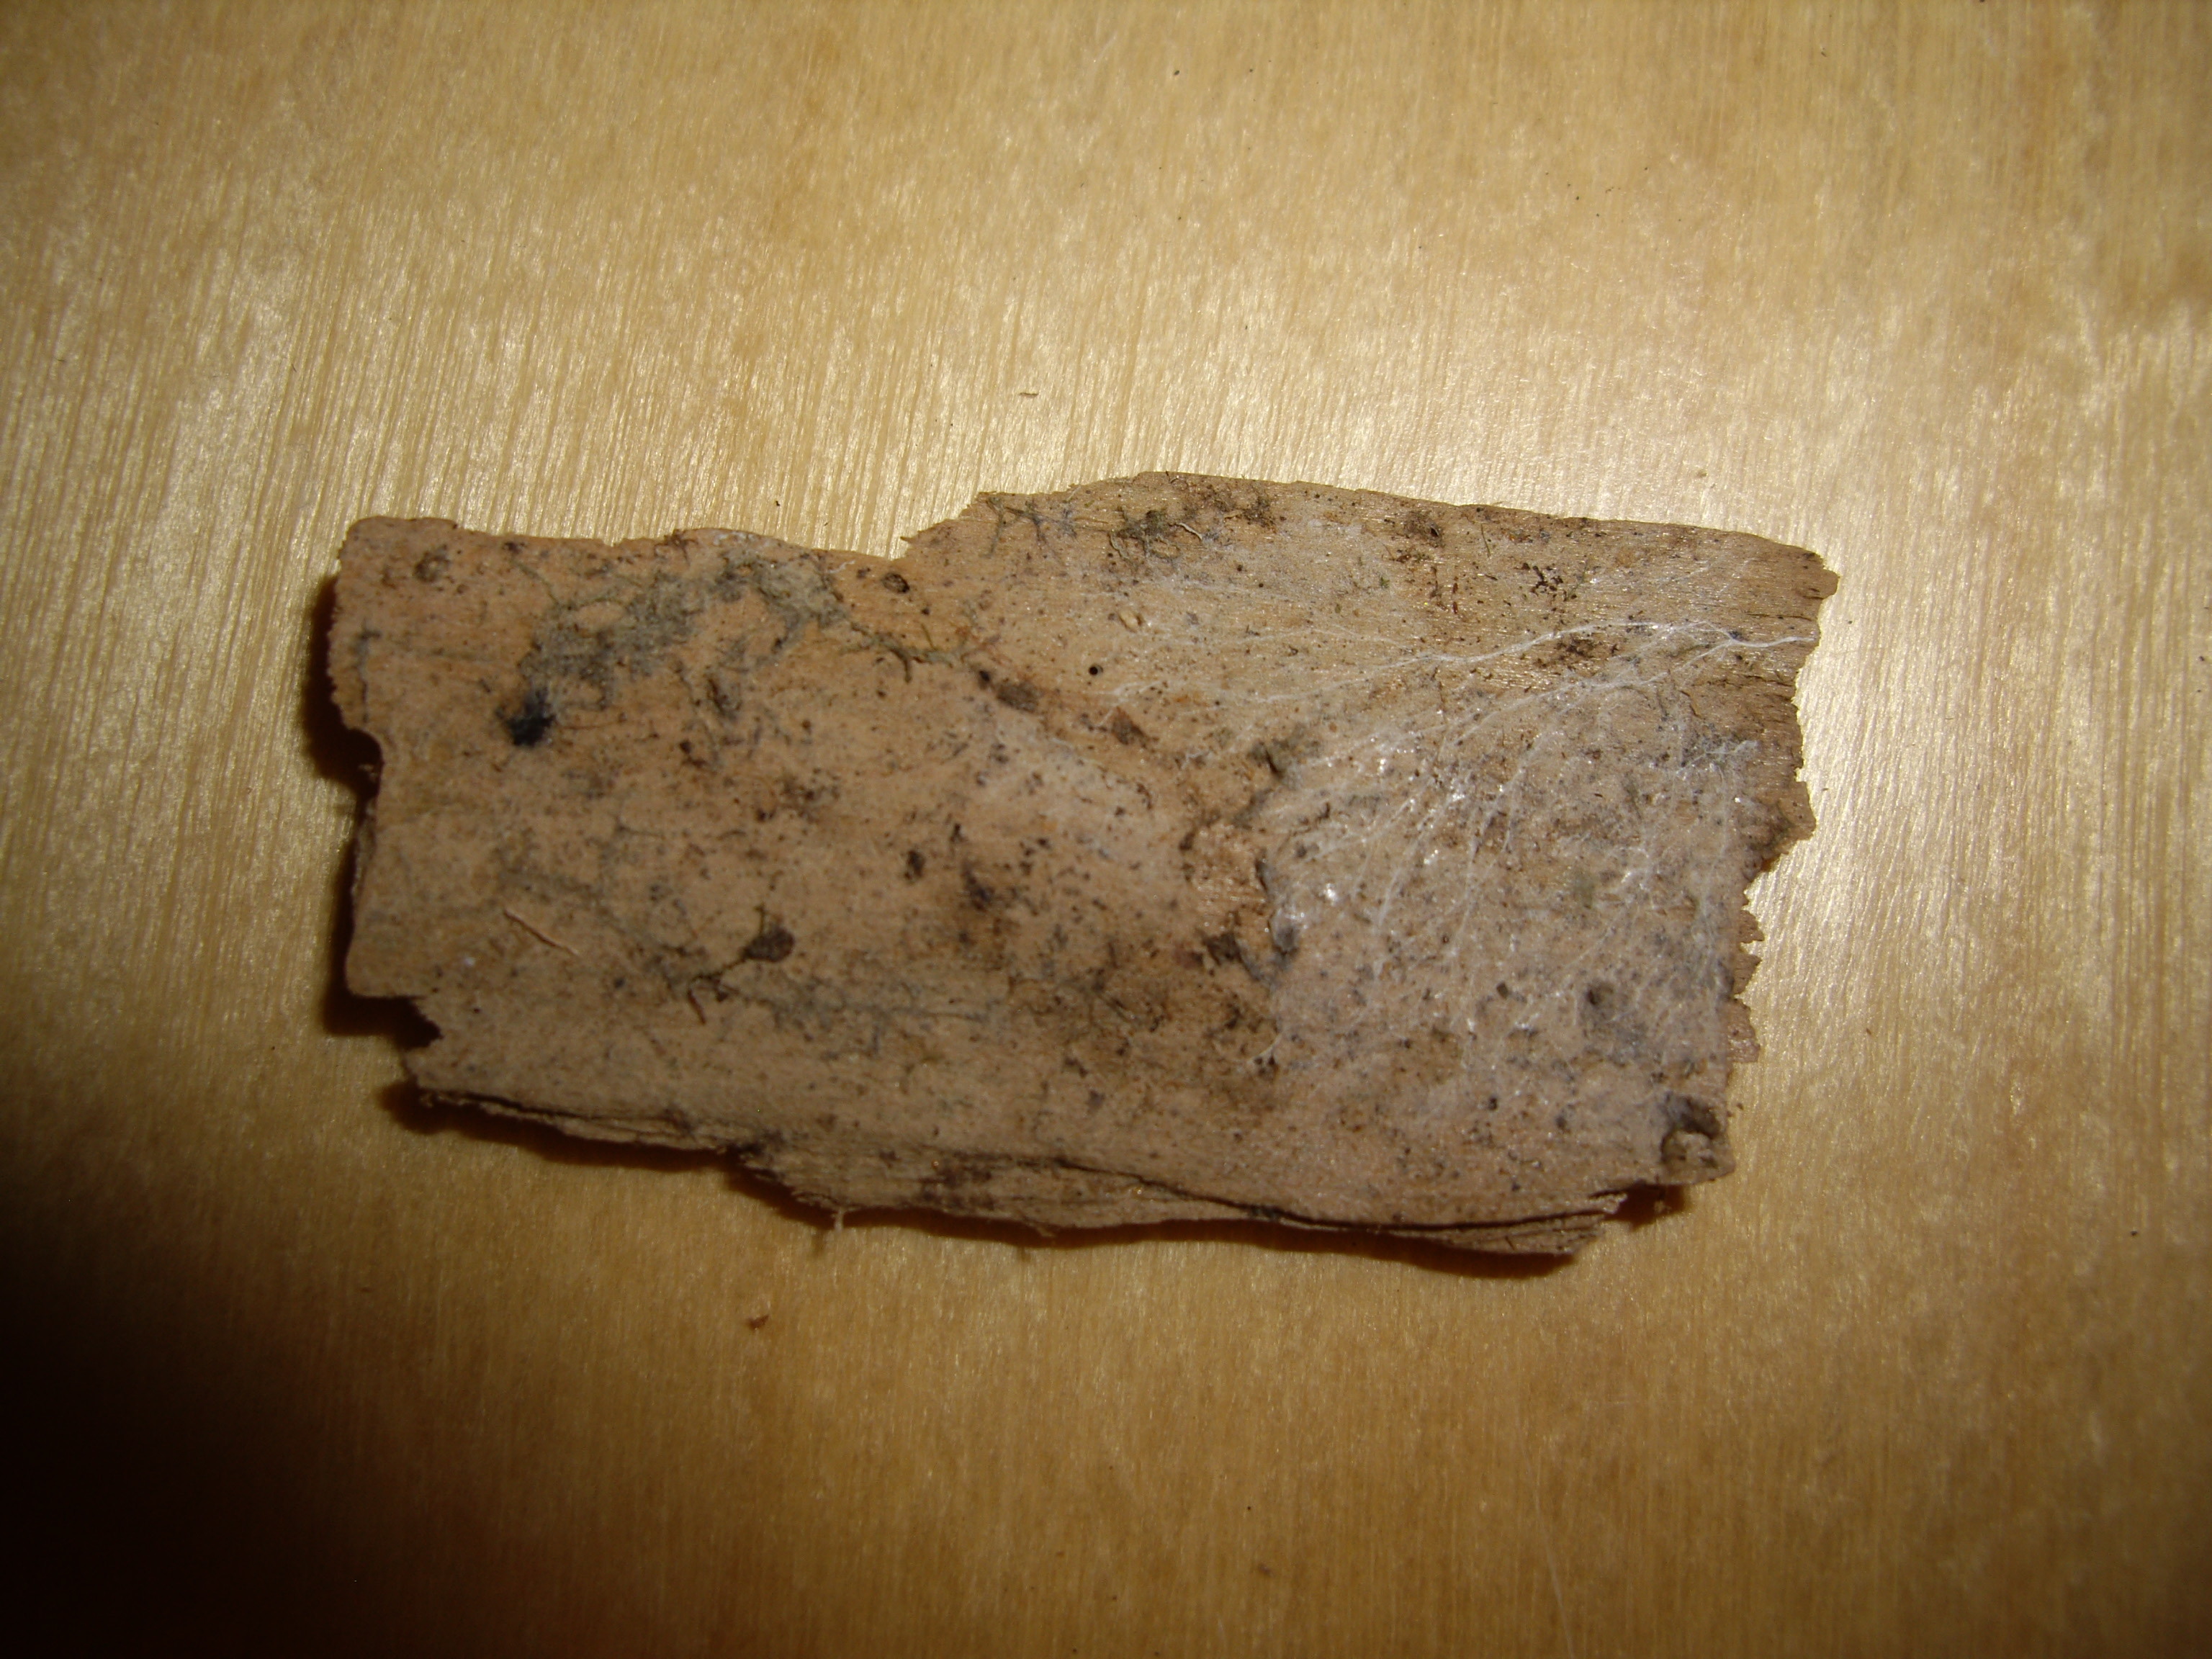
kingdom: Fungi
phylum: Basidiomycota
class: Agaricomycetes
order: Trechisporales
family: Sistotremataceae
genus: Trechispora
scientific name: Trechispora minima
